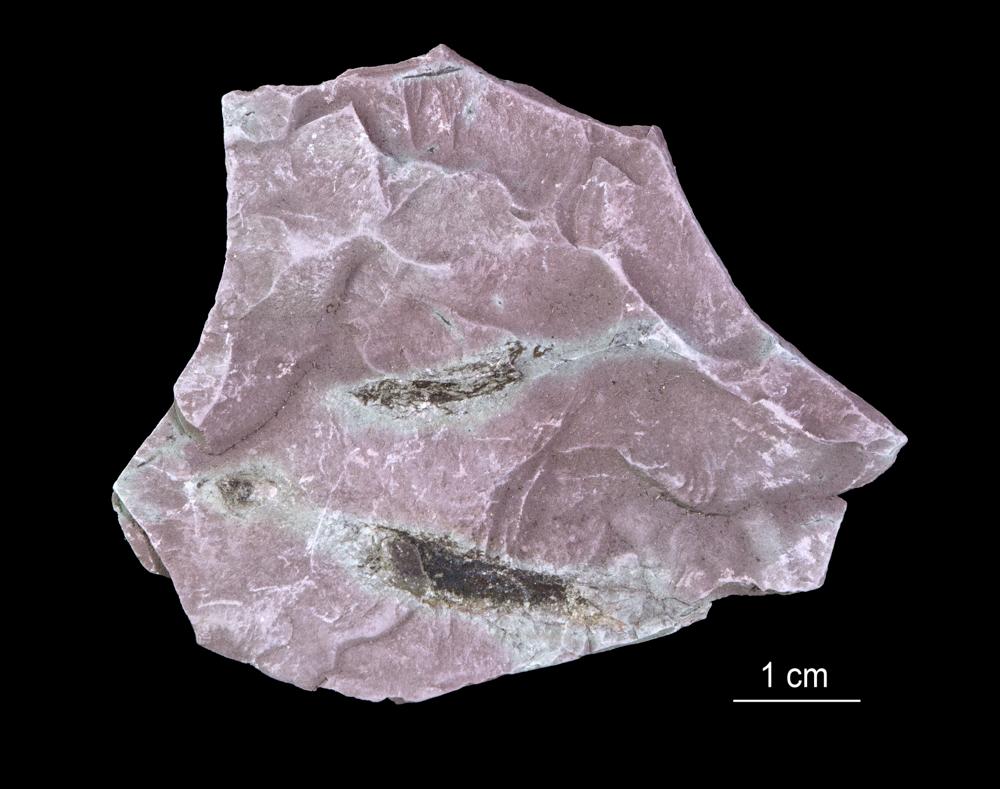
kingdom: Chromista
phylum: Foraminifera
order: Astrorhizida
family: Hyperamminidae
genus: Platysolenites
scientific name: Platysolenites
